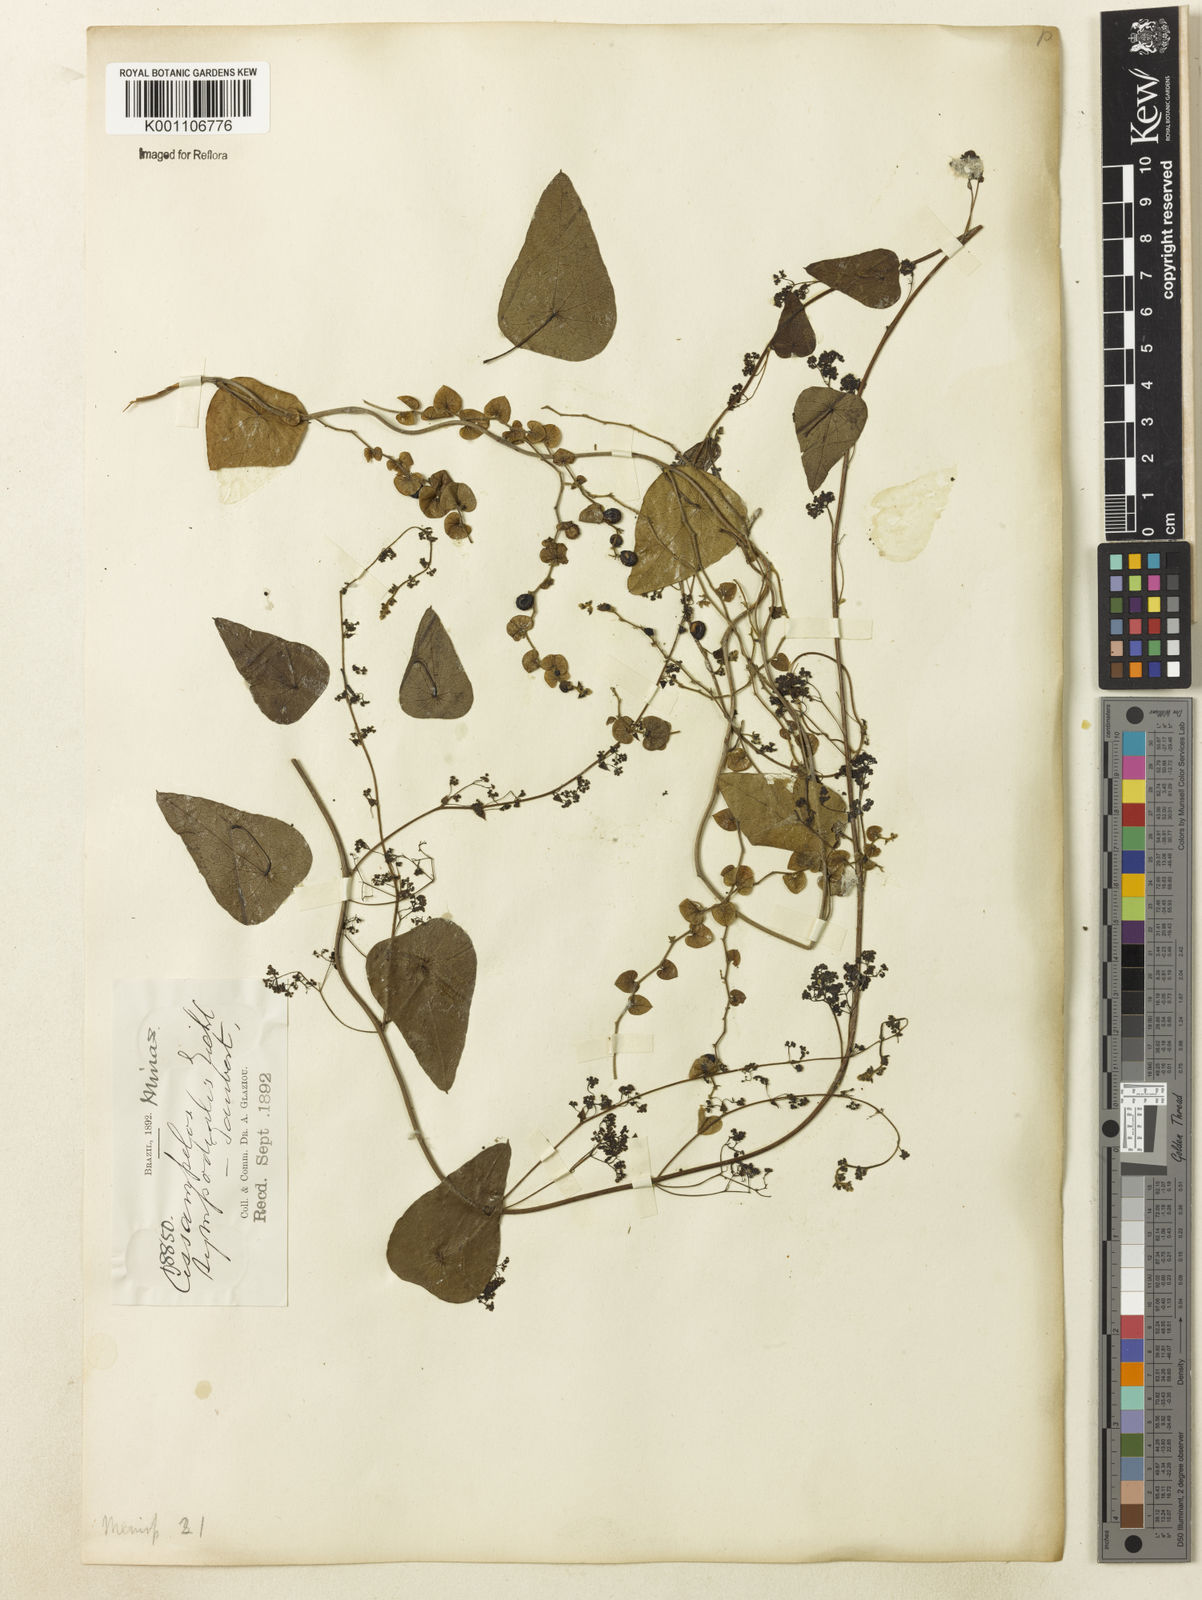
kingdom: Plantae
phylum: Tracheophyta
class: Magnoliopsida
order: Ranunculales
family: Menispermaceae
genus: Cissampelos
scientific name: Cissampelos sympodialis
